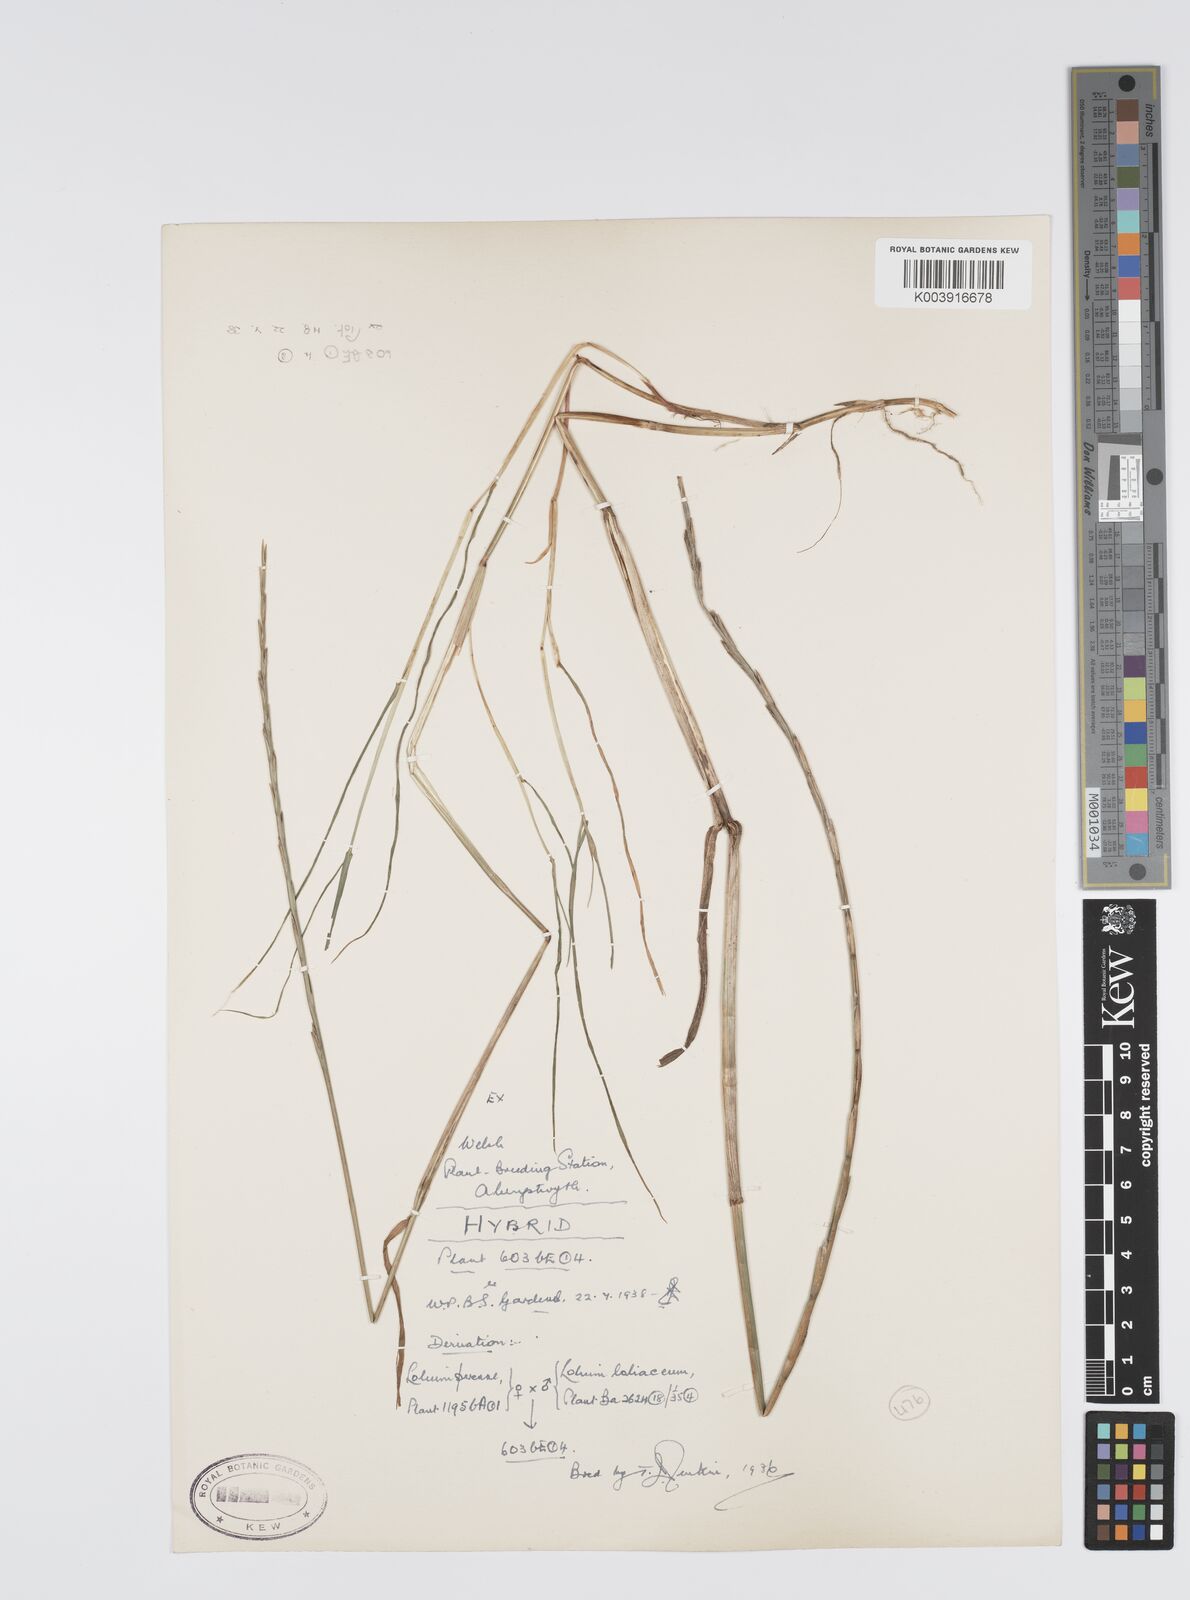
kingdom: Plantae
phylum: Tracheophyta
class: Liliopsida
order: Poales
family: Poaceae
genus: Lolium
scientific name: Lolium perenne
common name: Perennial ryegrass
